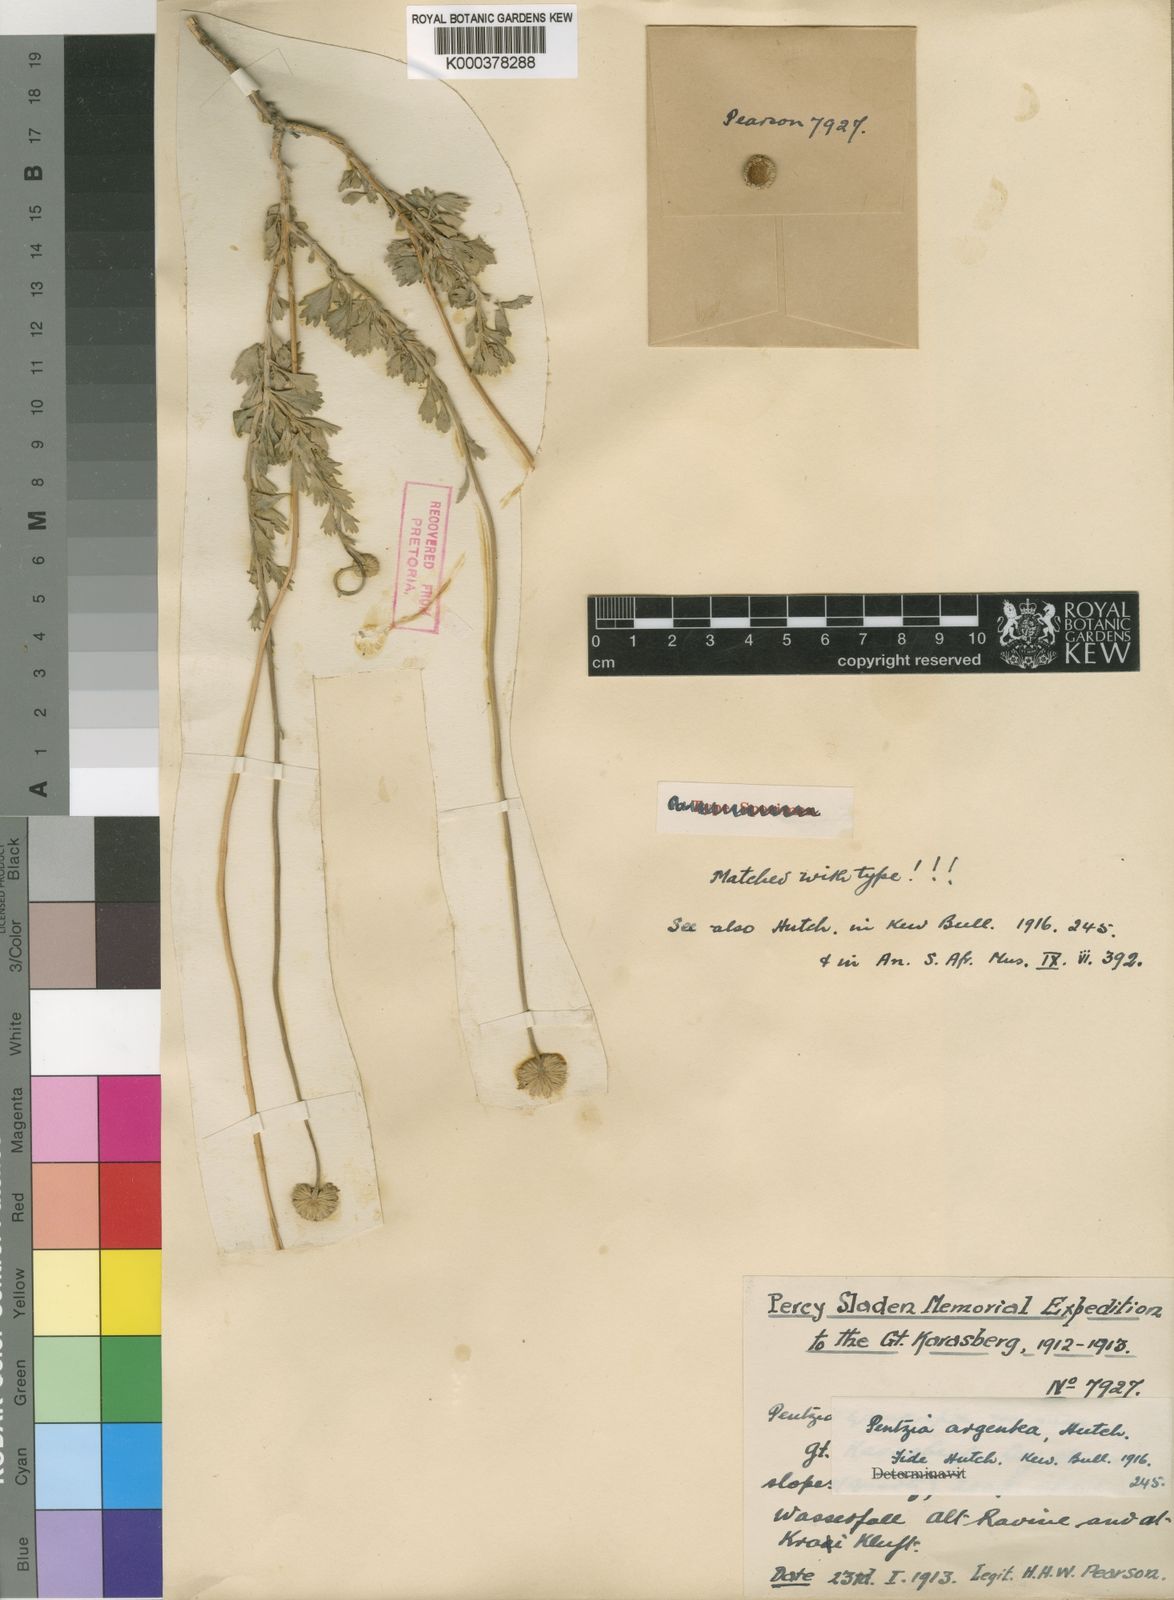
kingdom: Plantae
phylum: Tracheophyta
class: Magnoliopsida
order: Asterales
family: Asteraceae
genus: Pentzia
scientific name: Pentzia argentea
